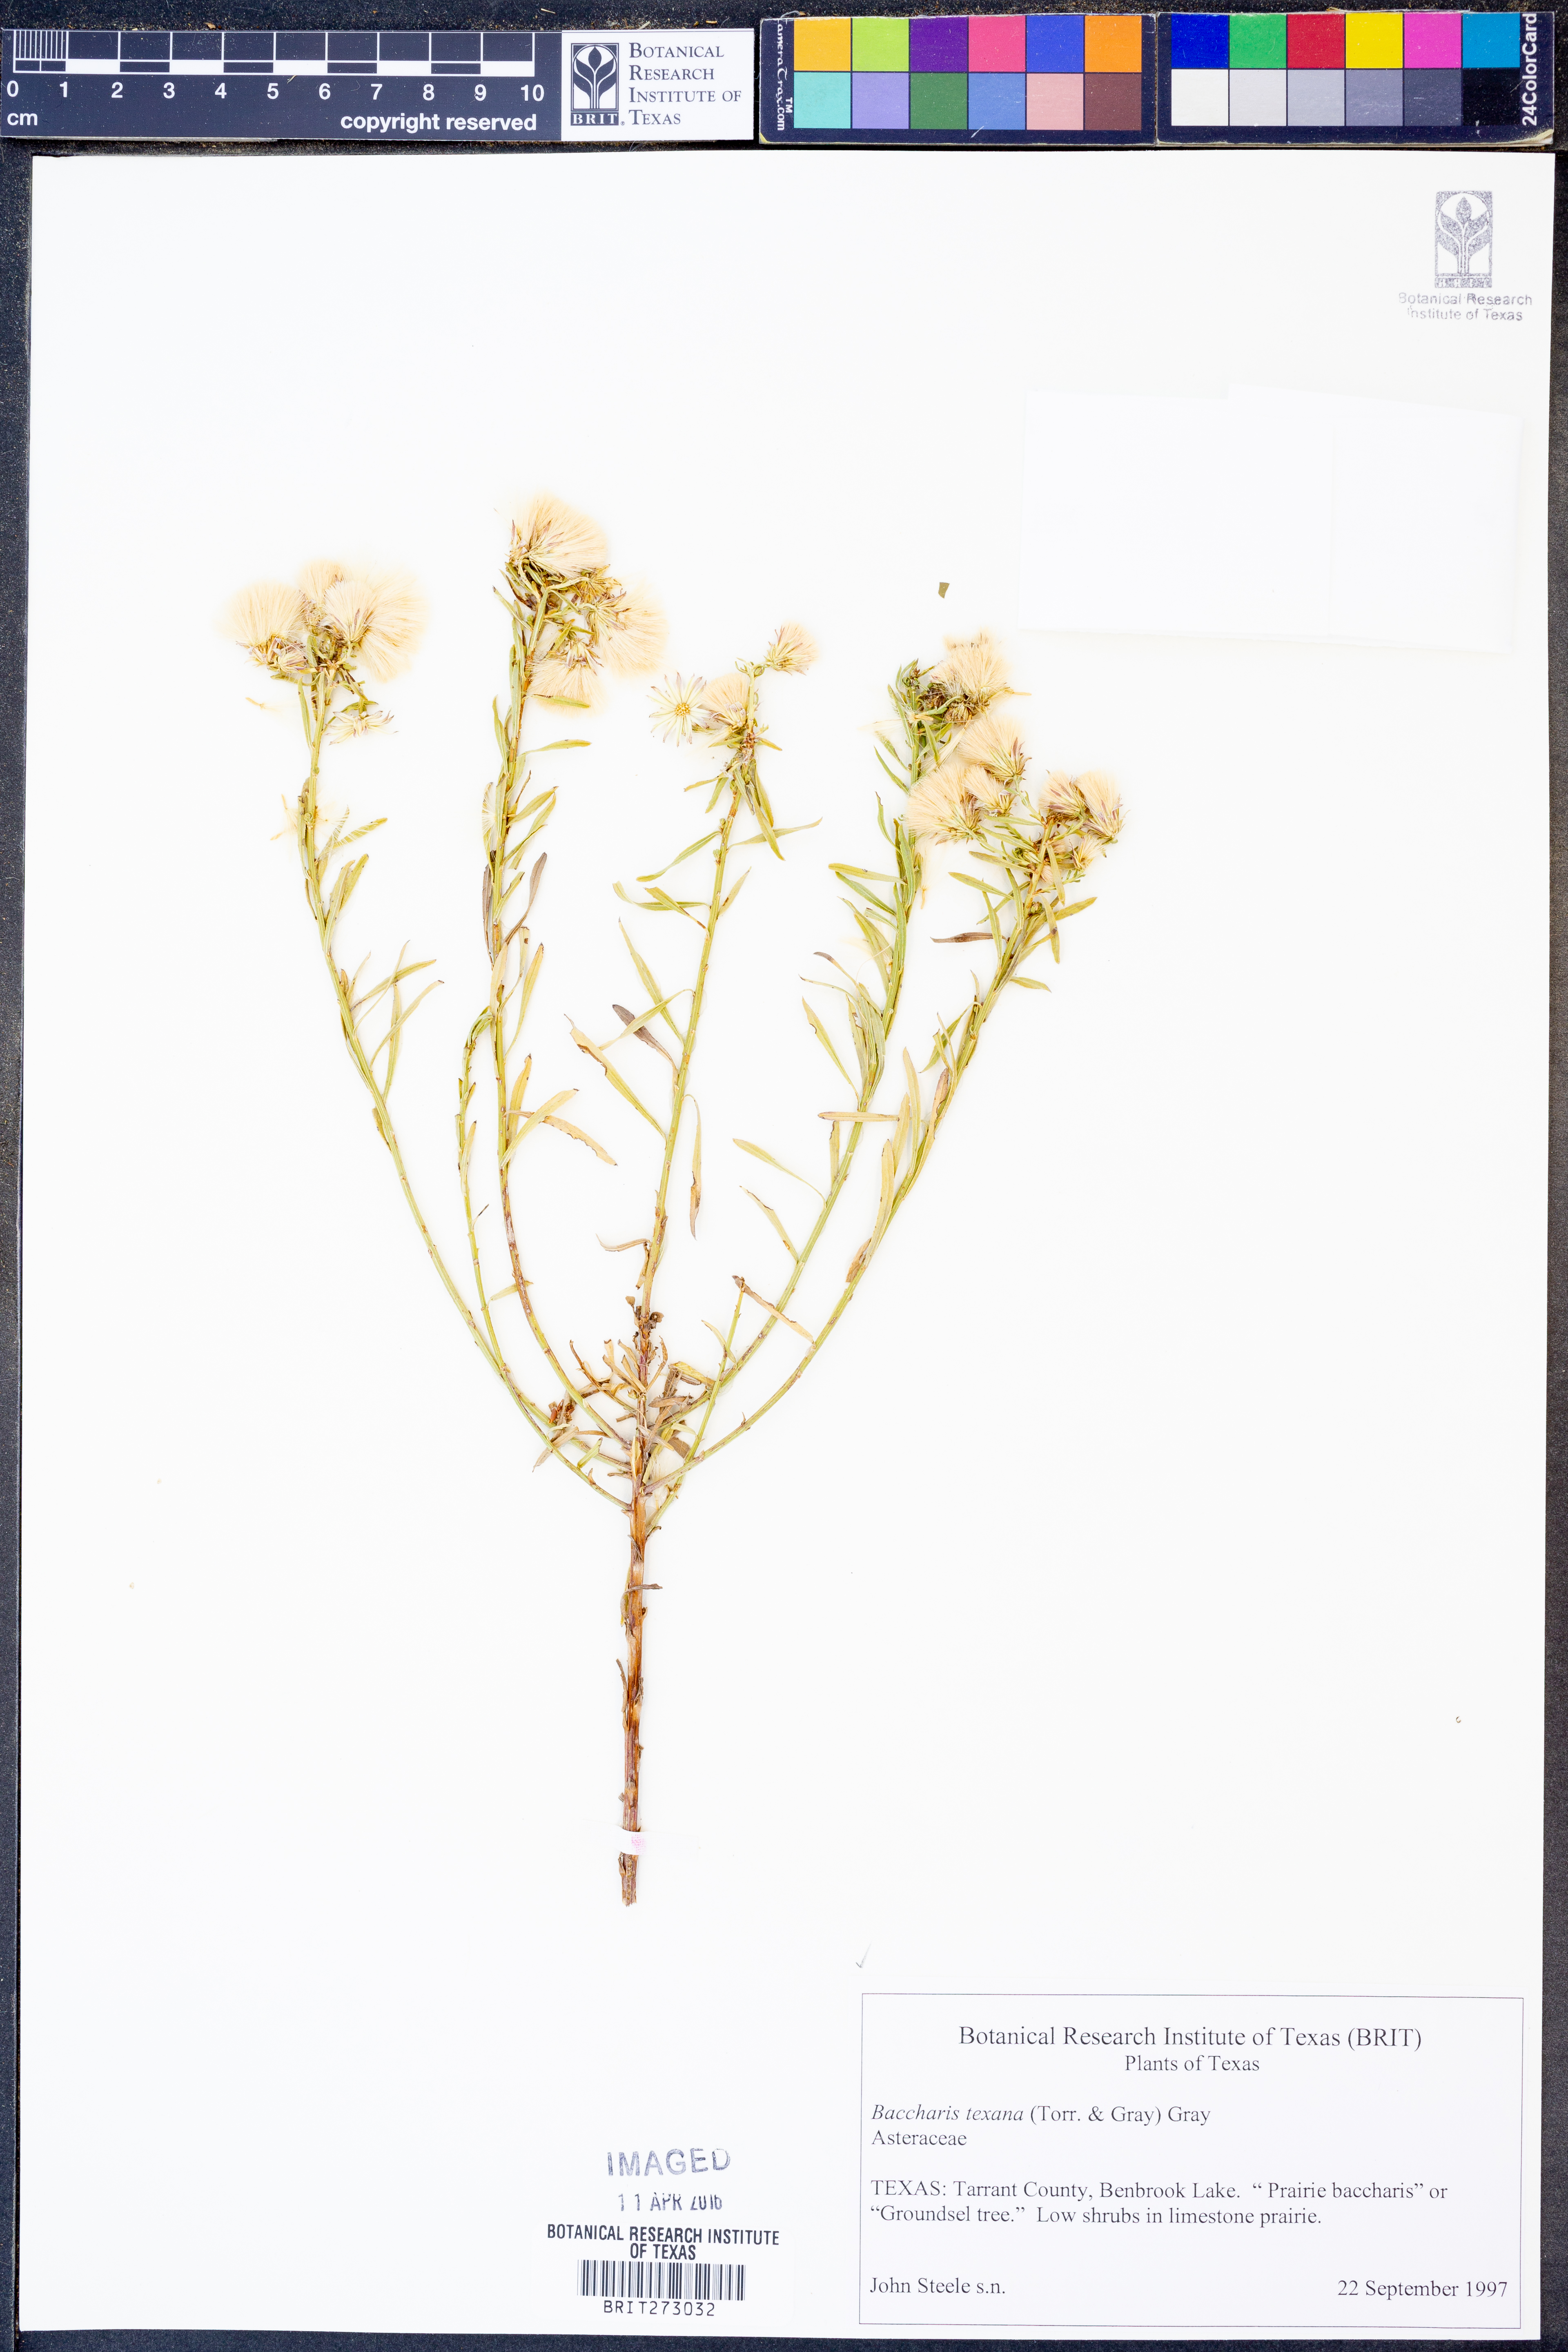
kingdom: Plantae
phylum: Tracheophyta
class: Magnoliopsida
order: Asterales
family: Asteraceae
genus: Baccharis
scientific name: Baccharis texana
